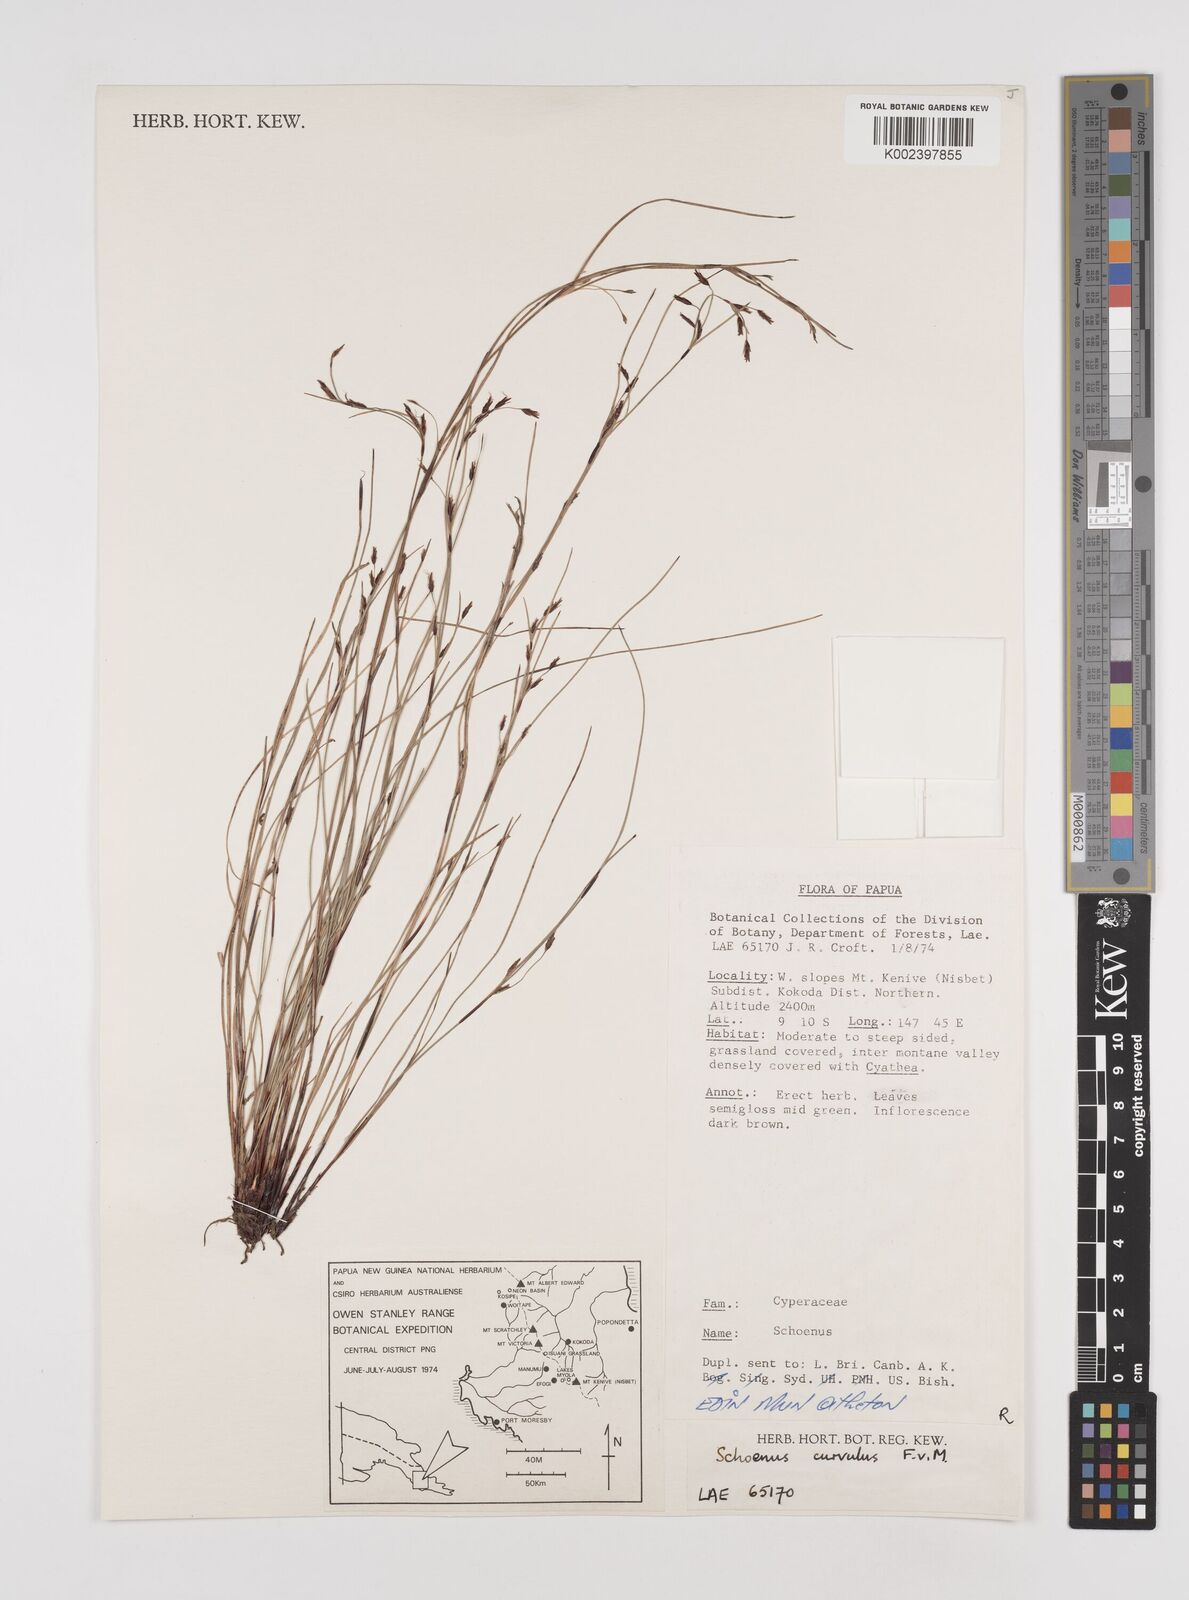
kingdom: Plantae
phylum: Tracheophyta
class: Liliopsida
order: Poales
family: Cyperaceae
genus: Schoenus
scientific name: Schoenus curvulus
